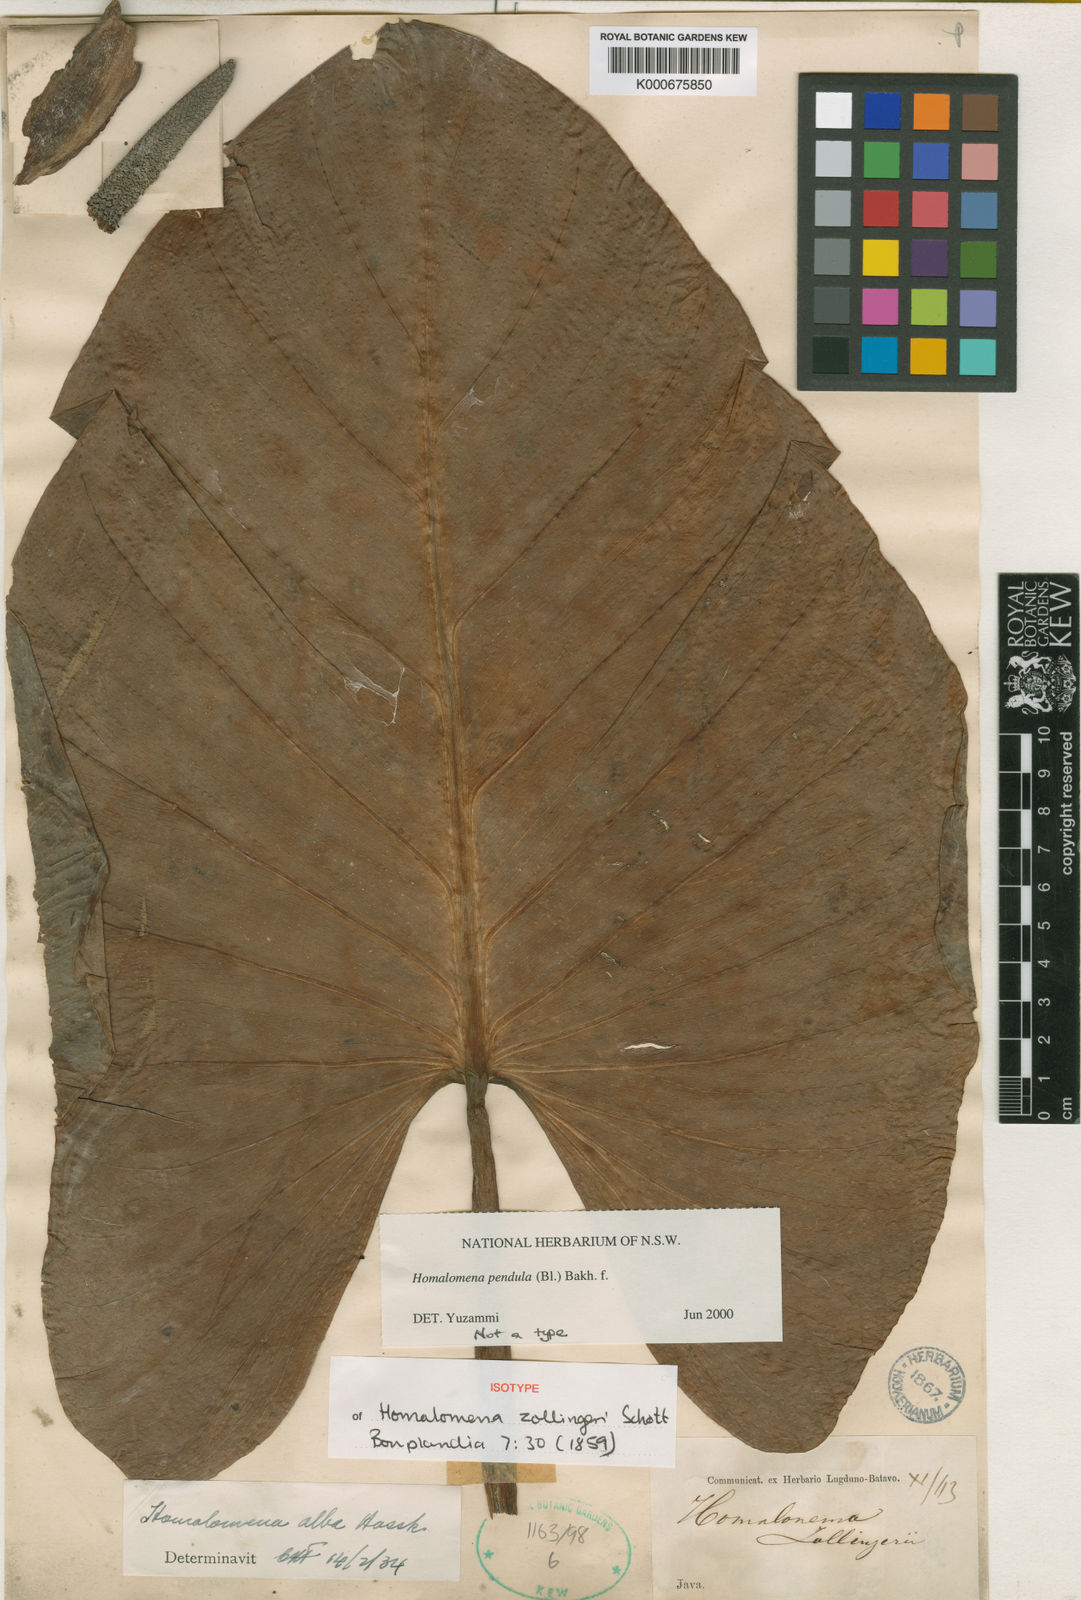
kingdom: Plantae
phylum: Tracheophyta
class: Liliopsida
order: Alismatales
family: Araceae
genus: Homalomena
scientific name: Homalomena zollingeri
